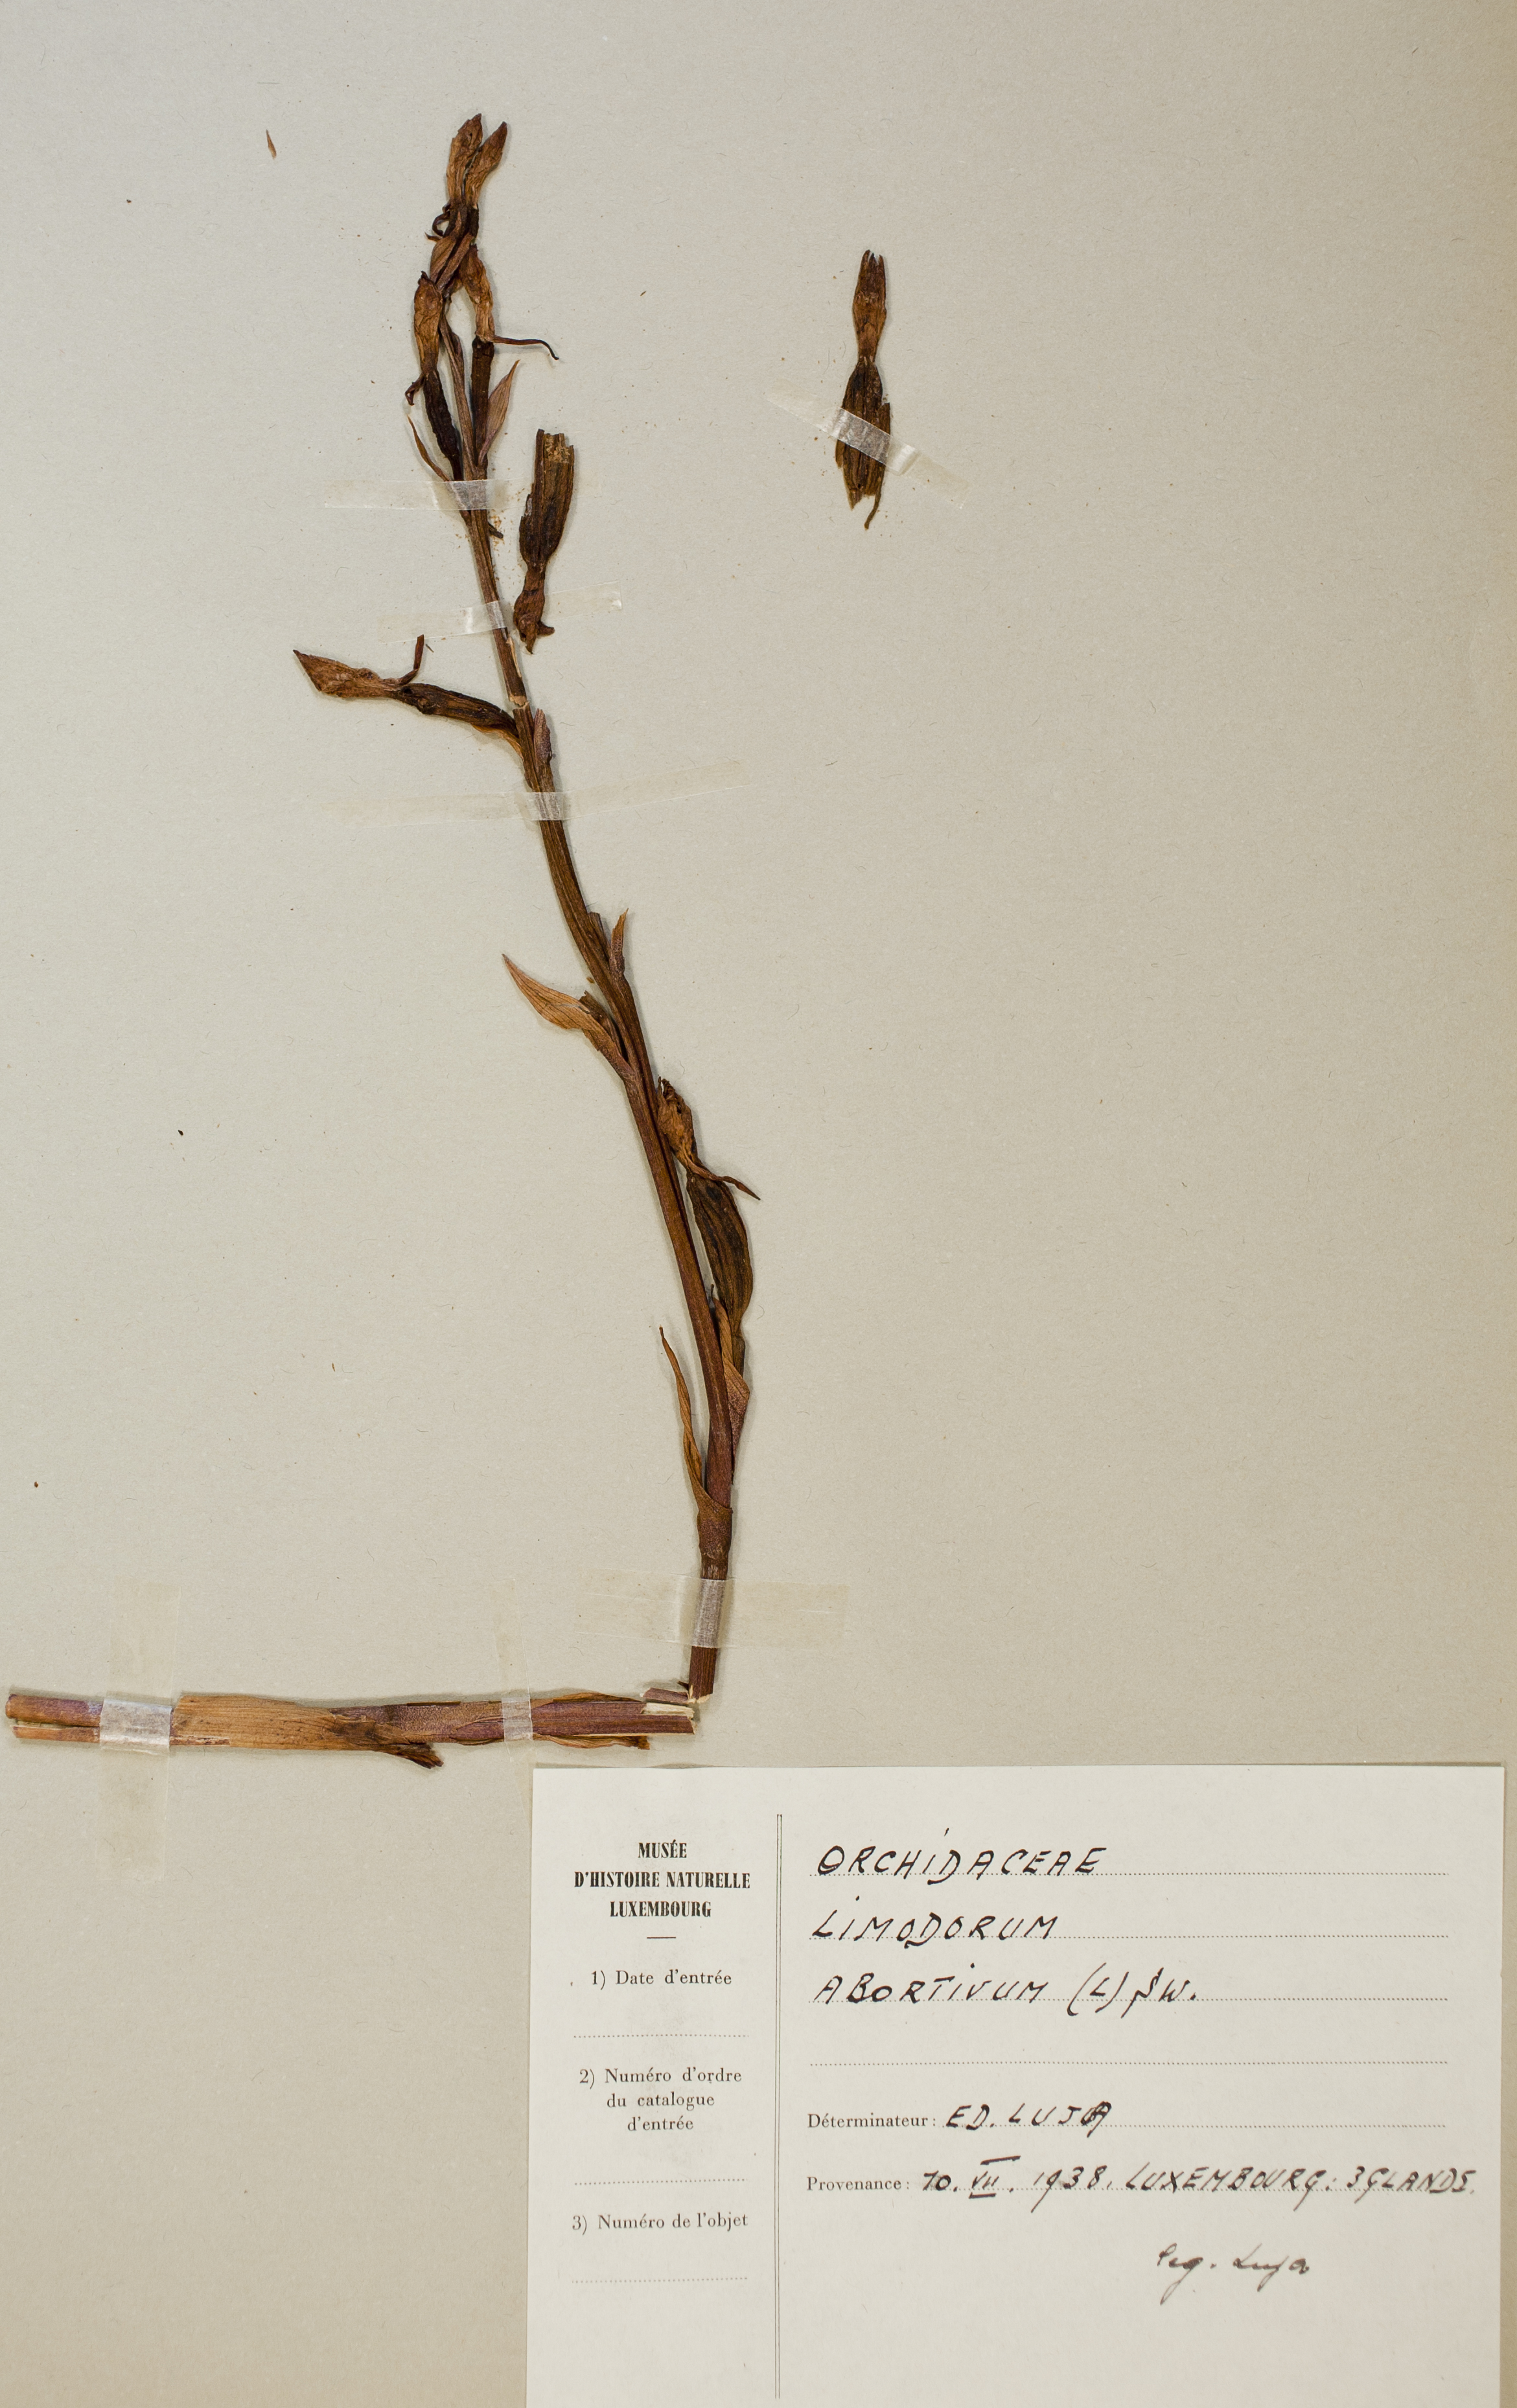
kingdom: Plantae
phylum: Tracheophyta
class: Liliopsida
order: Asparagales
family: Orchidaceae
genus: Limodorum
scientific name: Limodorum abortivum
